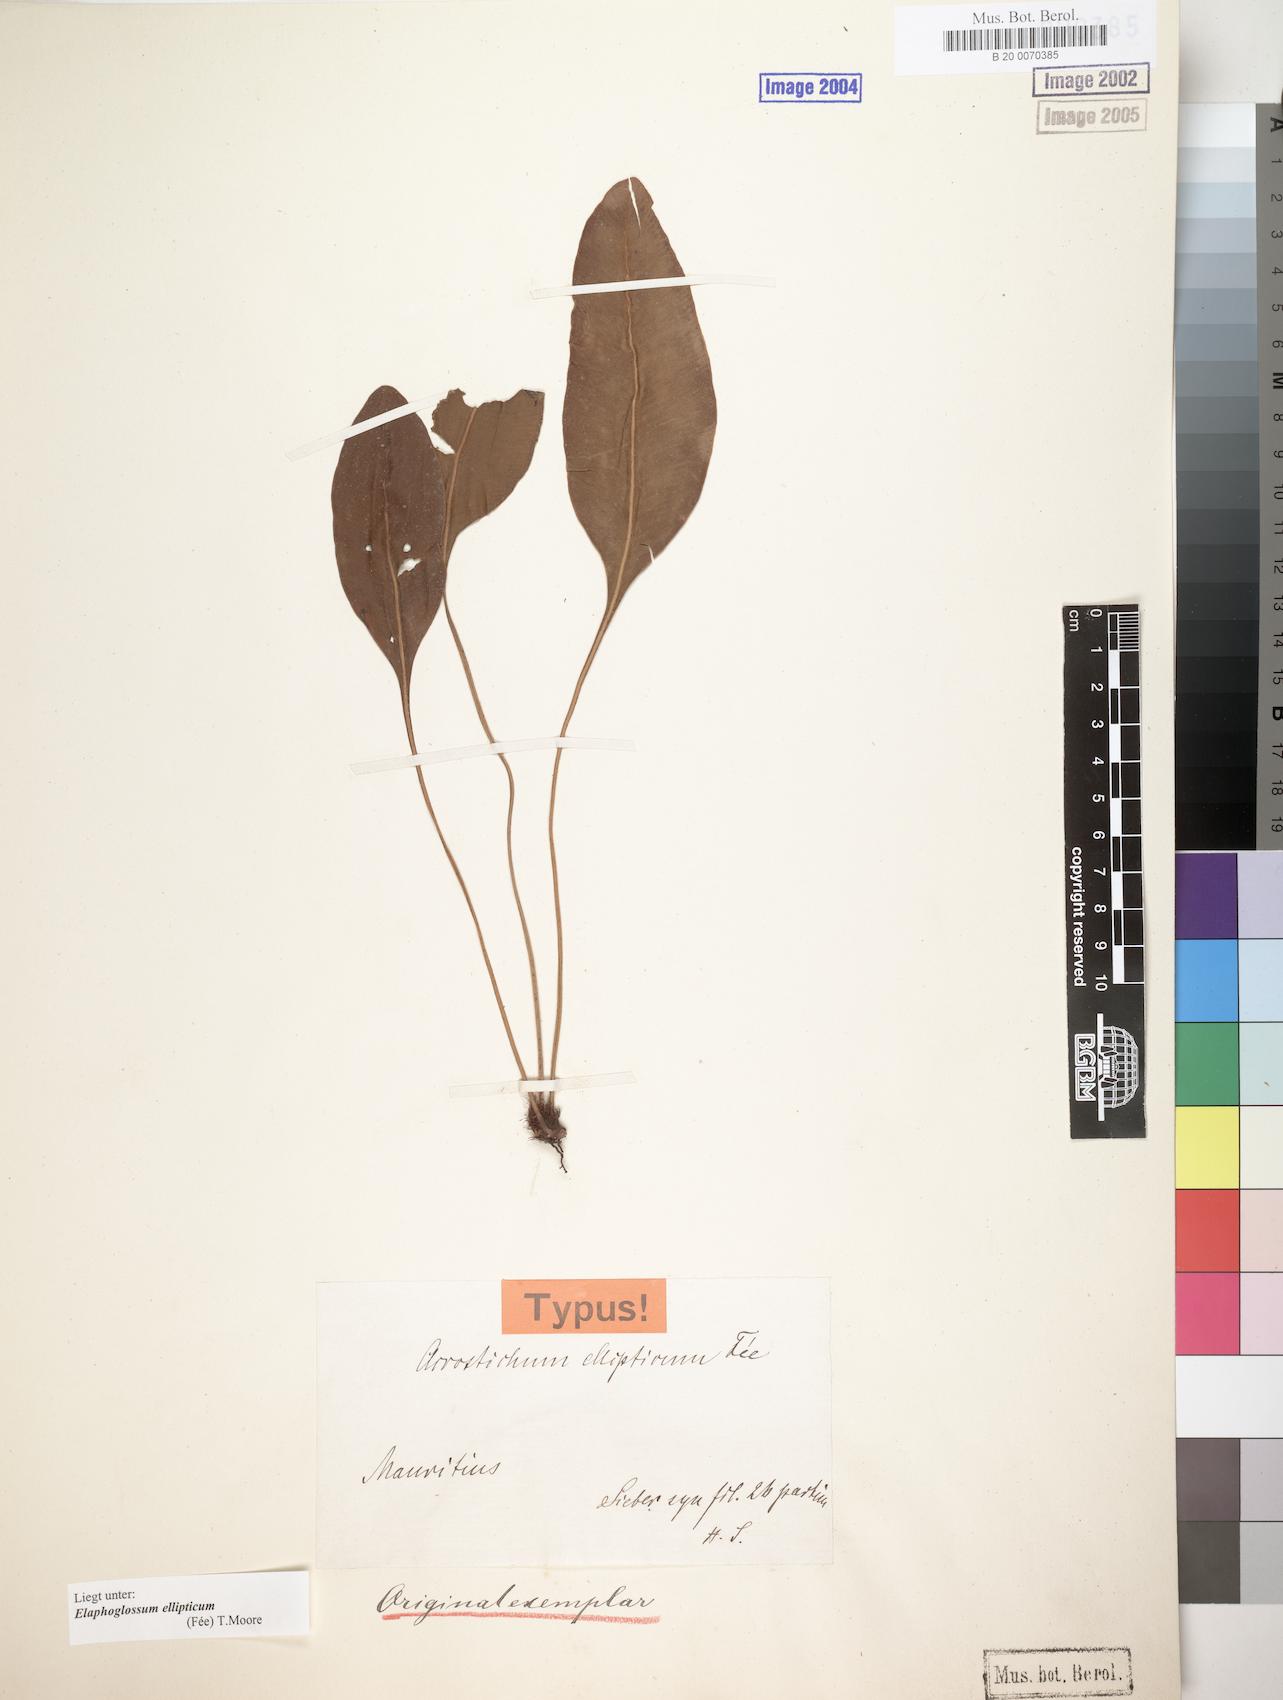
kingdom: Plantae
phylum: Tracheophyta
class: Polypodiopsida
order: Polypodiales
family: Dryopteridaceae
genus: Elaphoglossum
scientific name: Elaphoglossum sieberi
